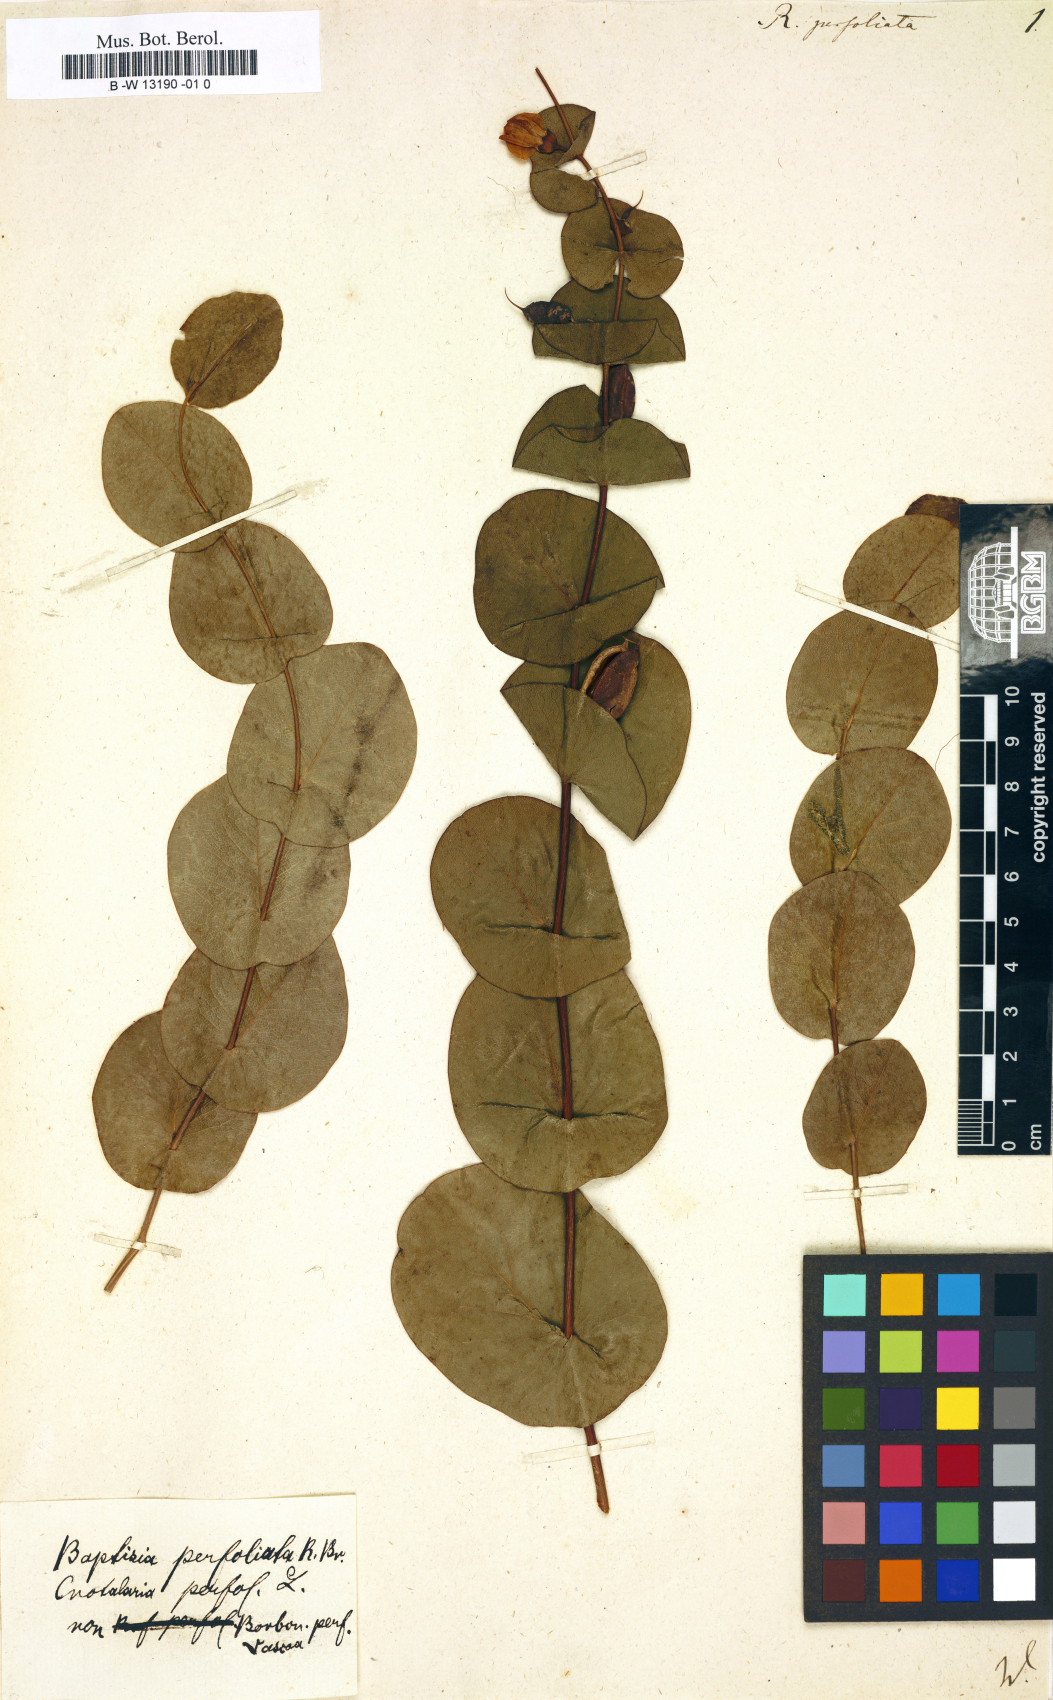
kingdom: Plantae
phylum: Tracheophyta
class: Magnoliopsida
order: Fabales
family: Fabaceae
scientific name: Fabaceae
